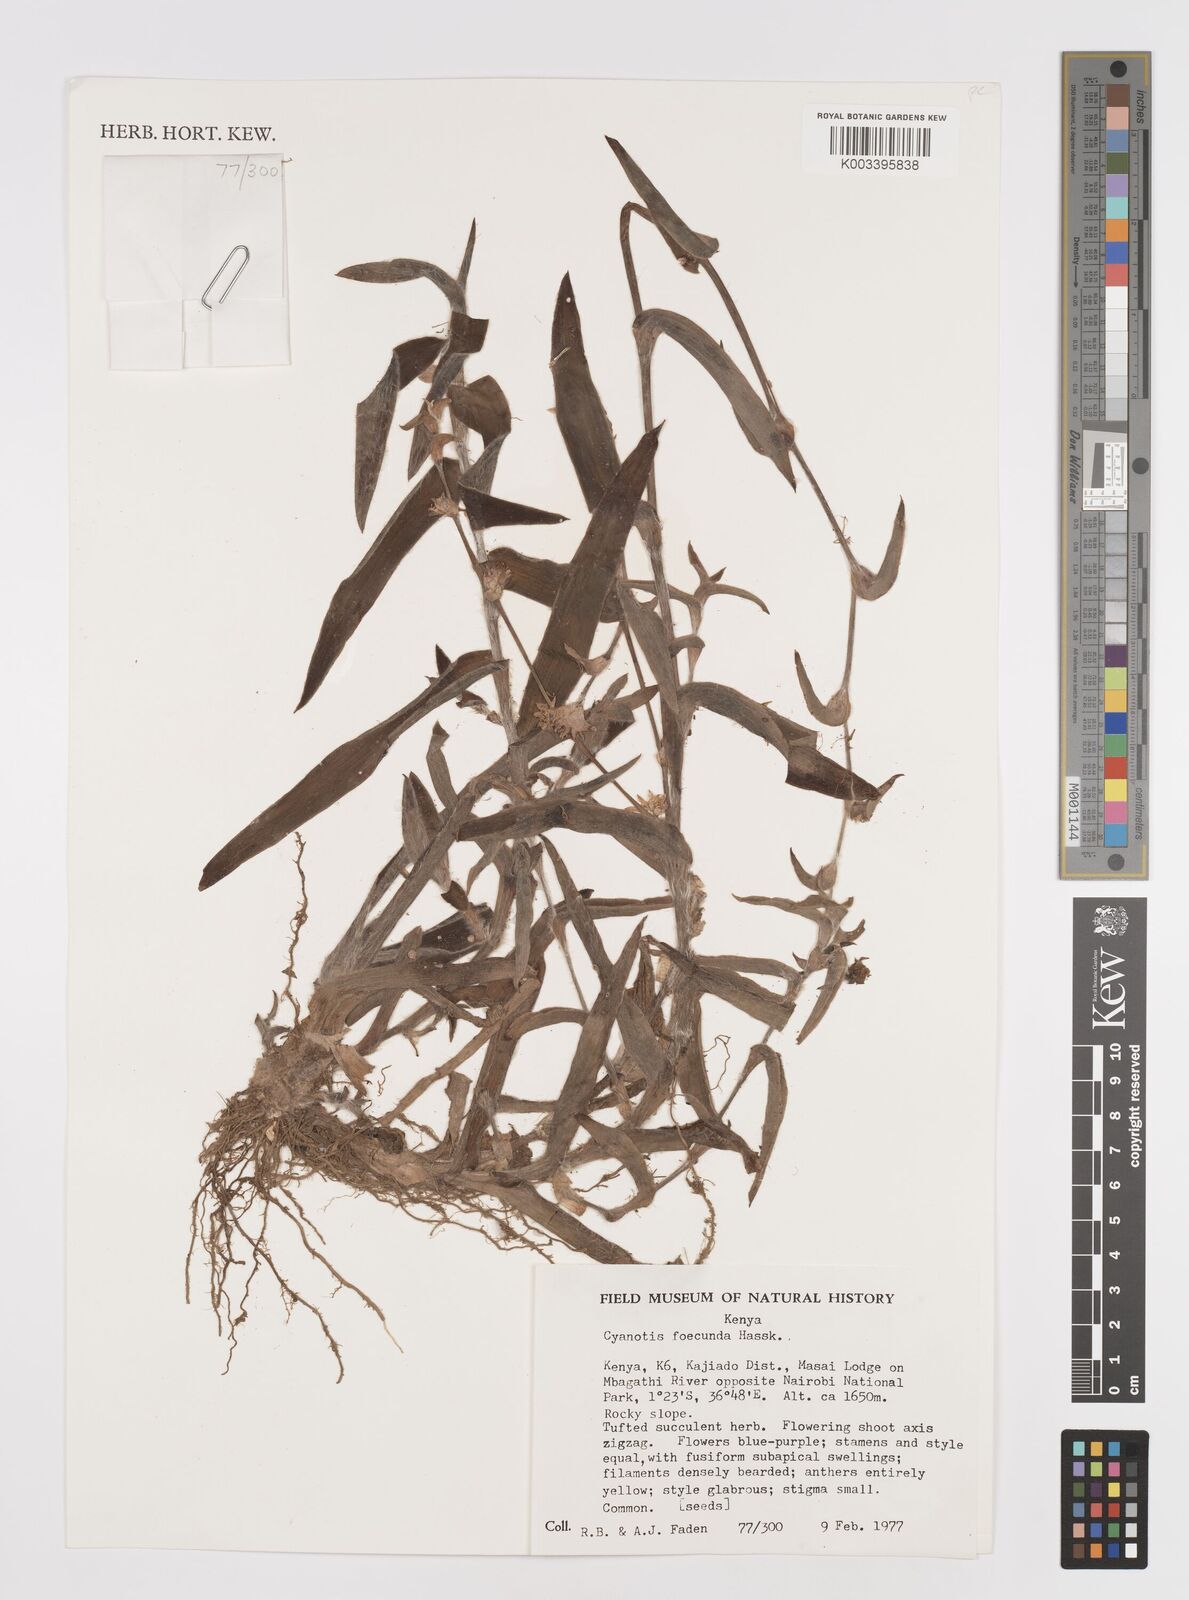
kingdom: Plantae
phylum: Tracheophyta
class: Liliopsida
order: Commelinales
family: Commelinaceae
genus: Cyanotis
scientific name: Cyanotis foecunda
